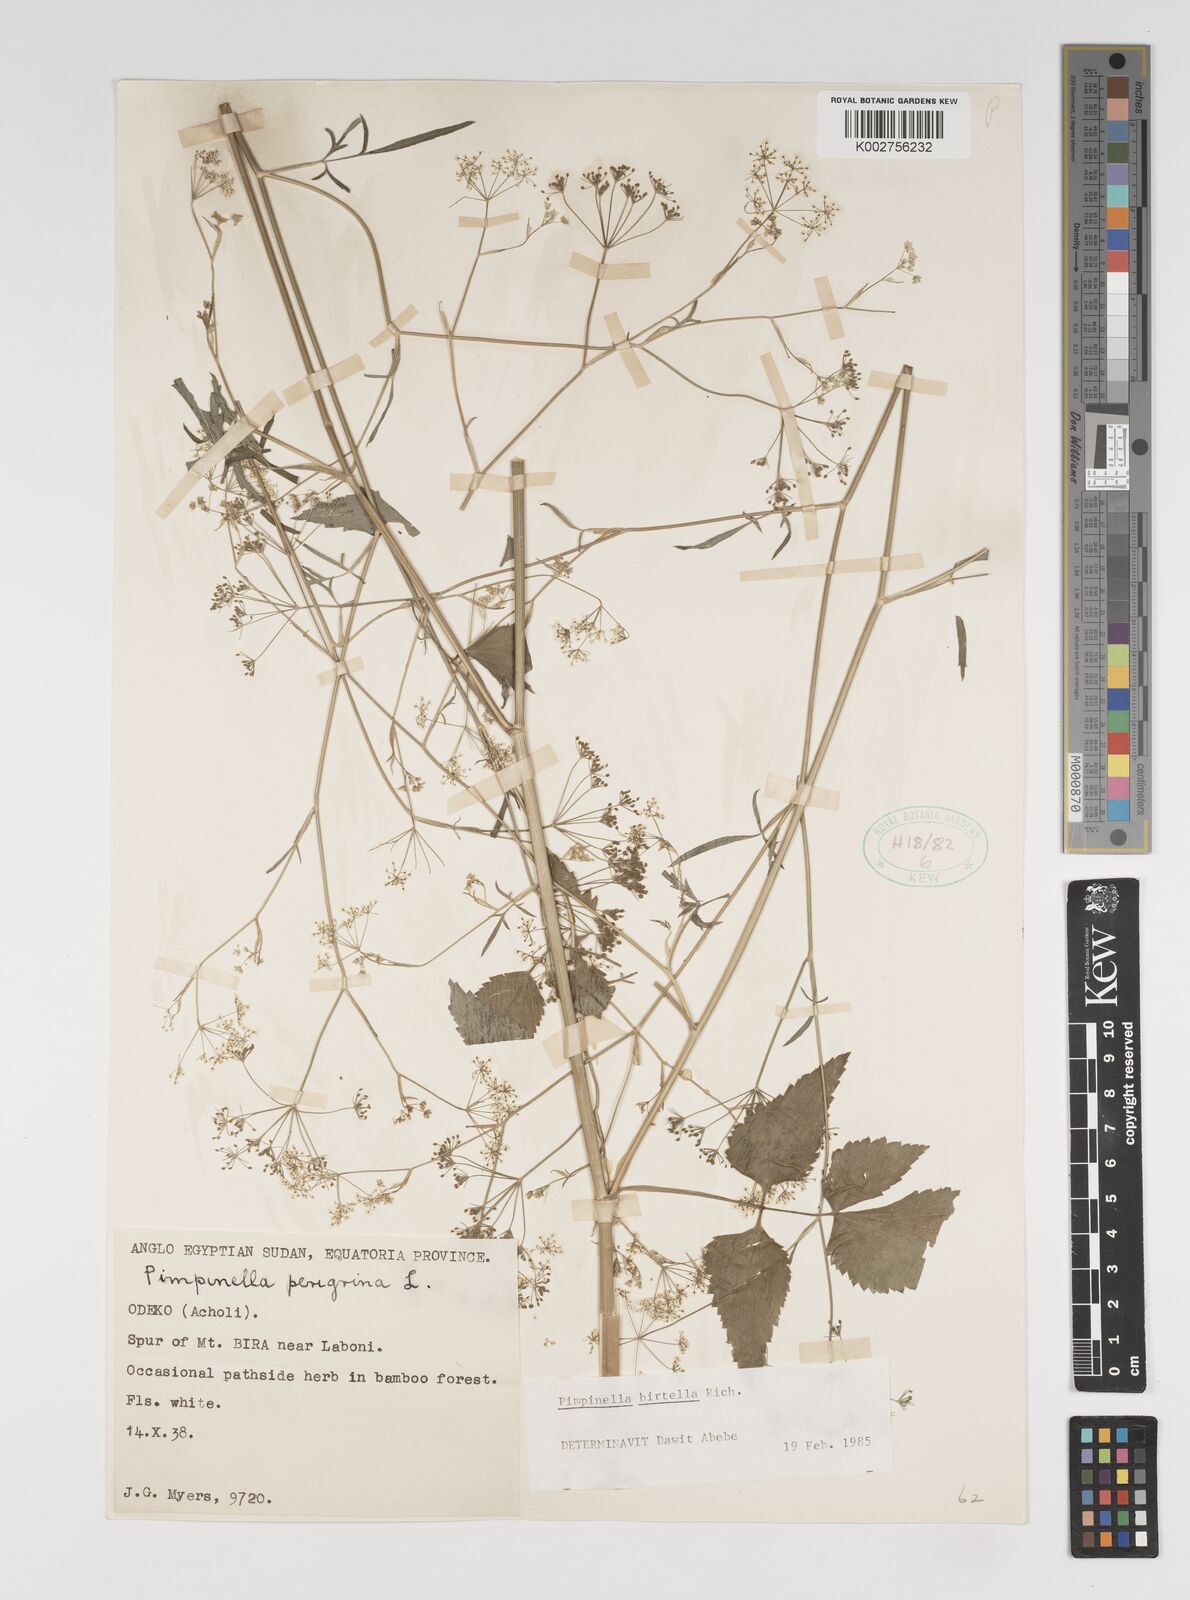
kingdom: Plantae
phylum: Tracheophyta
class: Magnoliopsida
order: Apiales
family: Apiaceae
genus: Pimpinella
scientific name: Pimpinella hirtella
